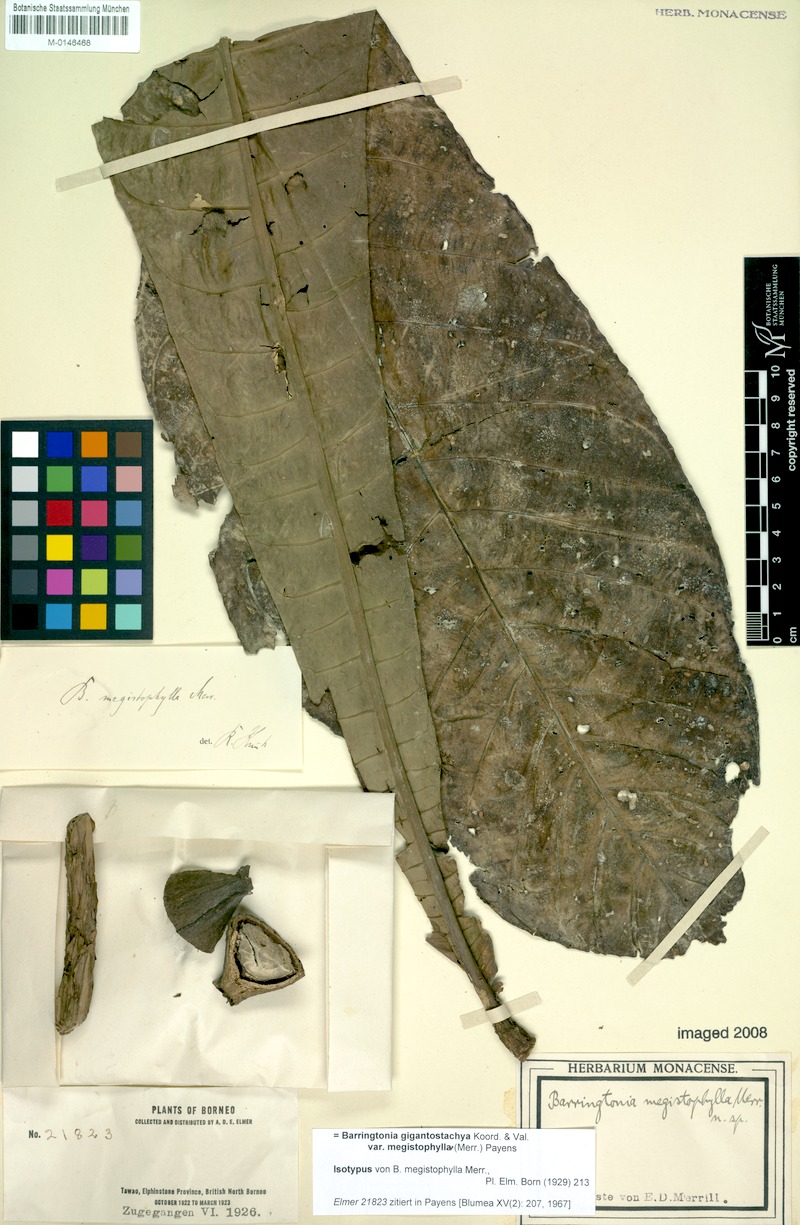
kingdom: Plantae
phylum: Tracheophyta
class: Magnoliopsida
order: Ericales
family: Lecythidaceae
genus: Barringtonia
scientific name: Barringtonia gigantostachya
